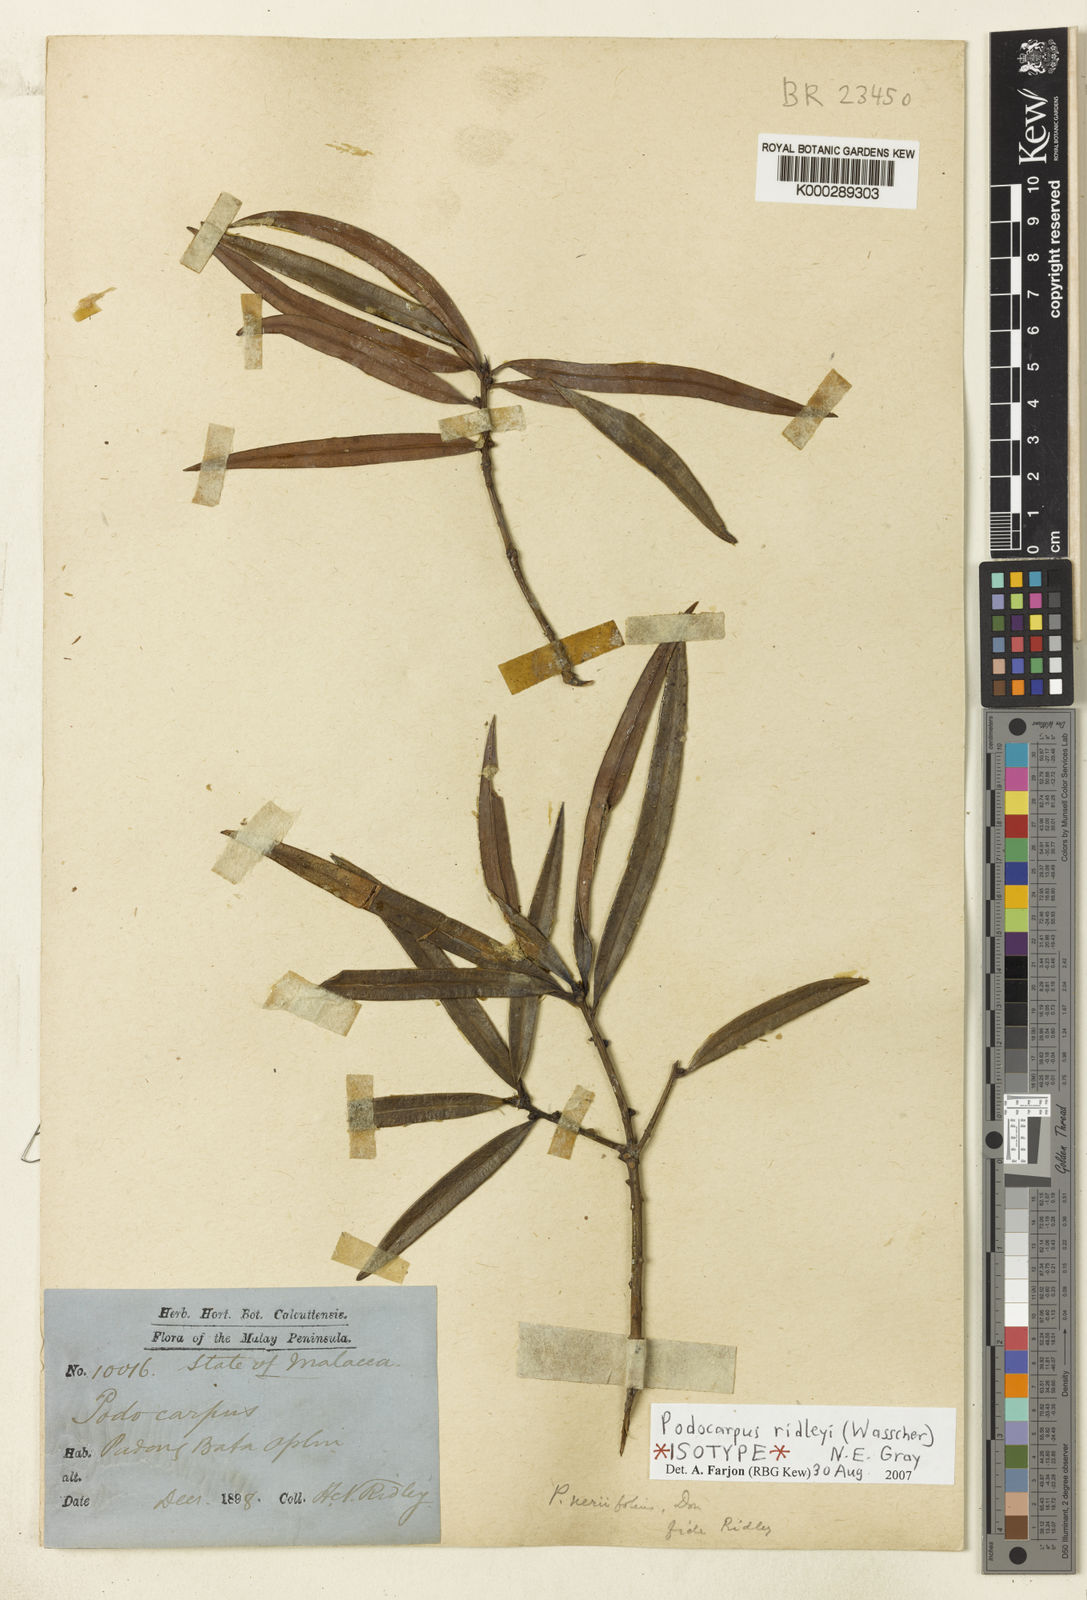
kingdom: Plantae
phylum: Tracheophyta
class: Pinopsida
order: Pinales
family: Podocarpaceae
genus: Podocarpus
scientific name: Podocarpus ridleyi
